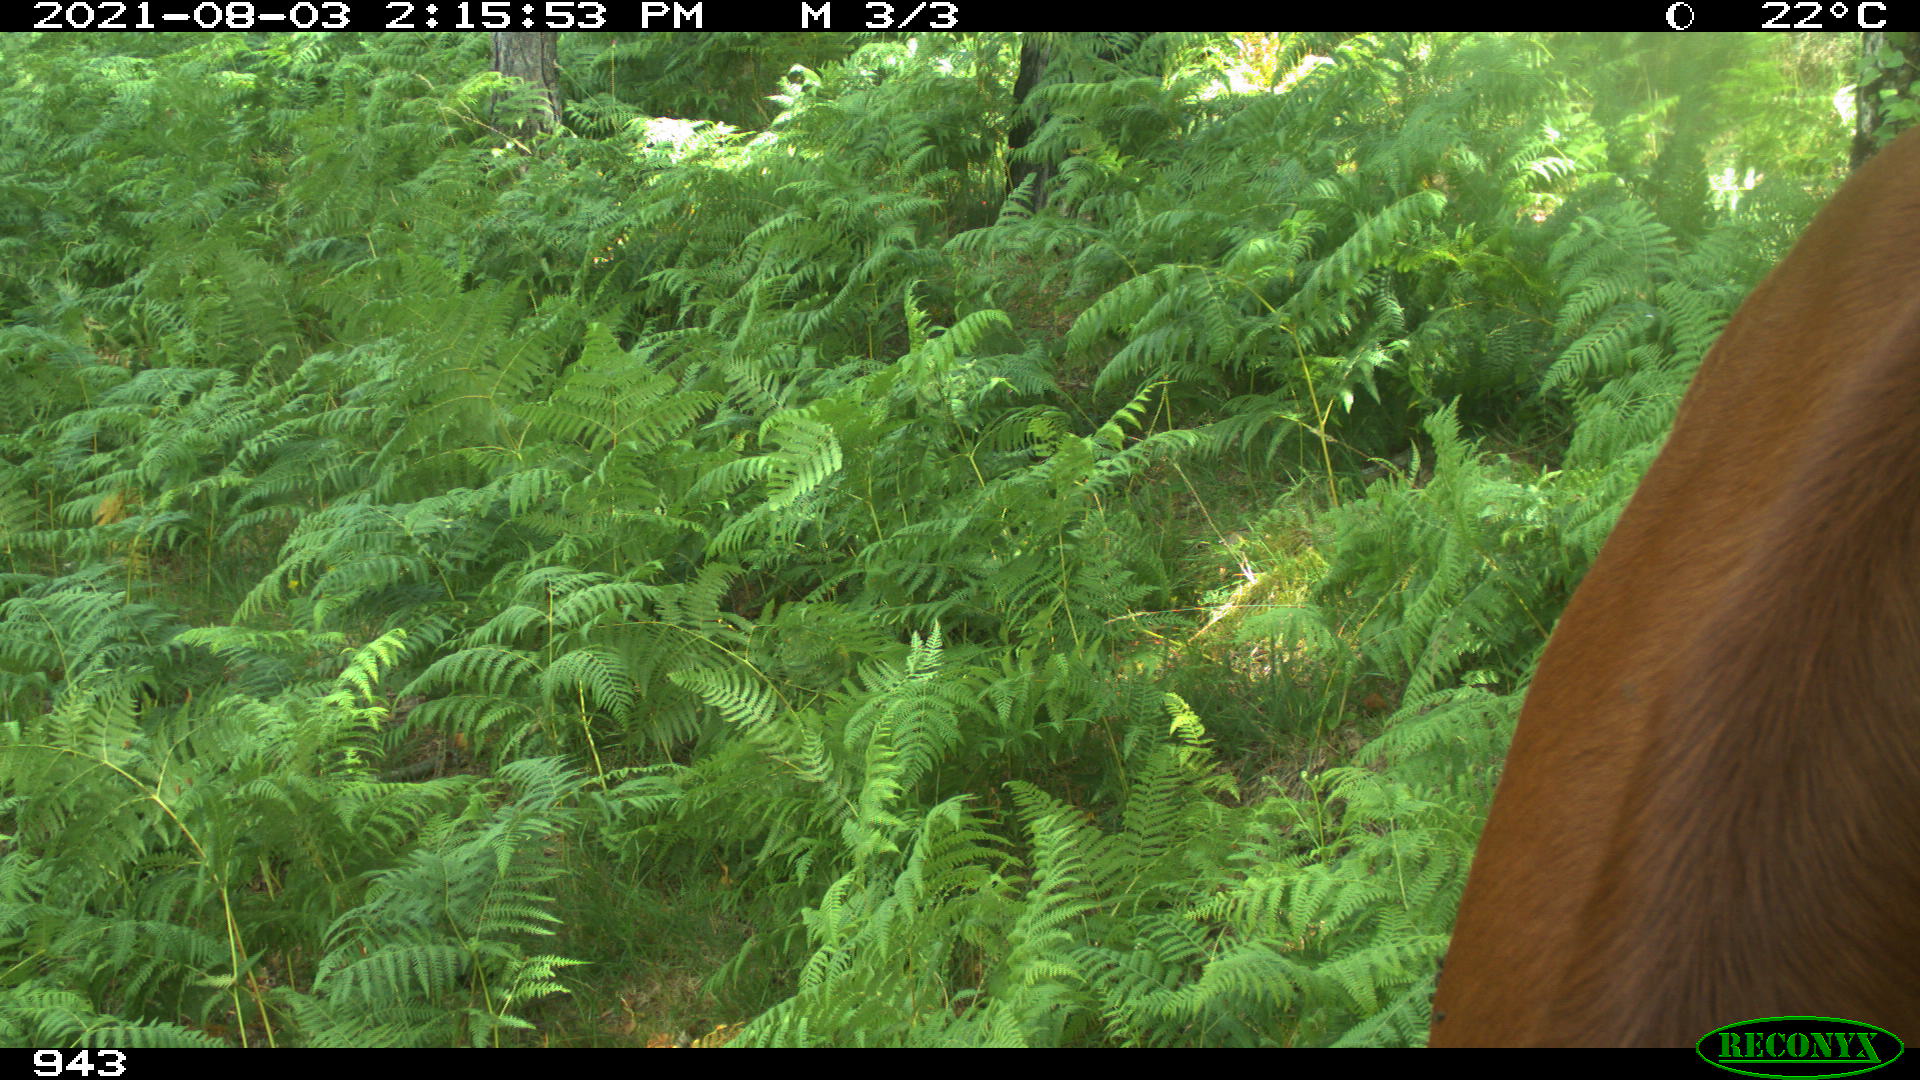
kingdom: Animalia
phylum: Chordata
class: Mammalia
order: Artiodactyla
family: Bovidae
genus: Bos
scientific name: Bos taurus
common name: Domesticated cattle
